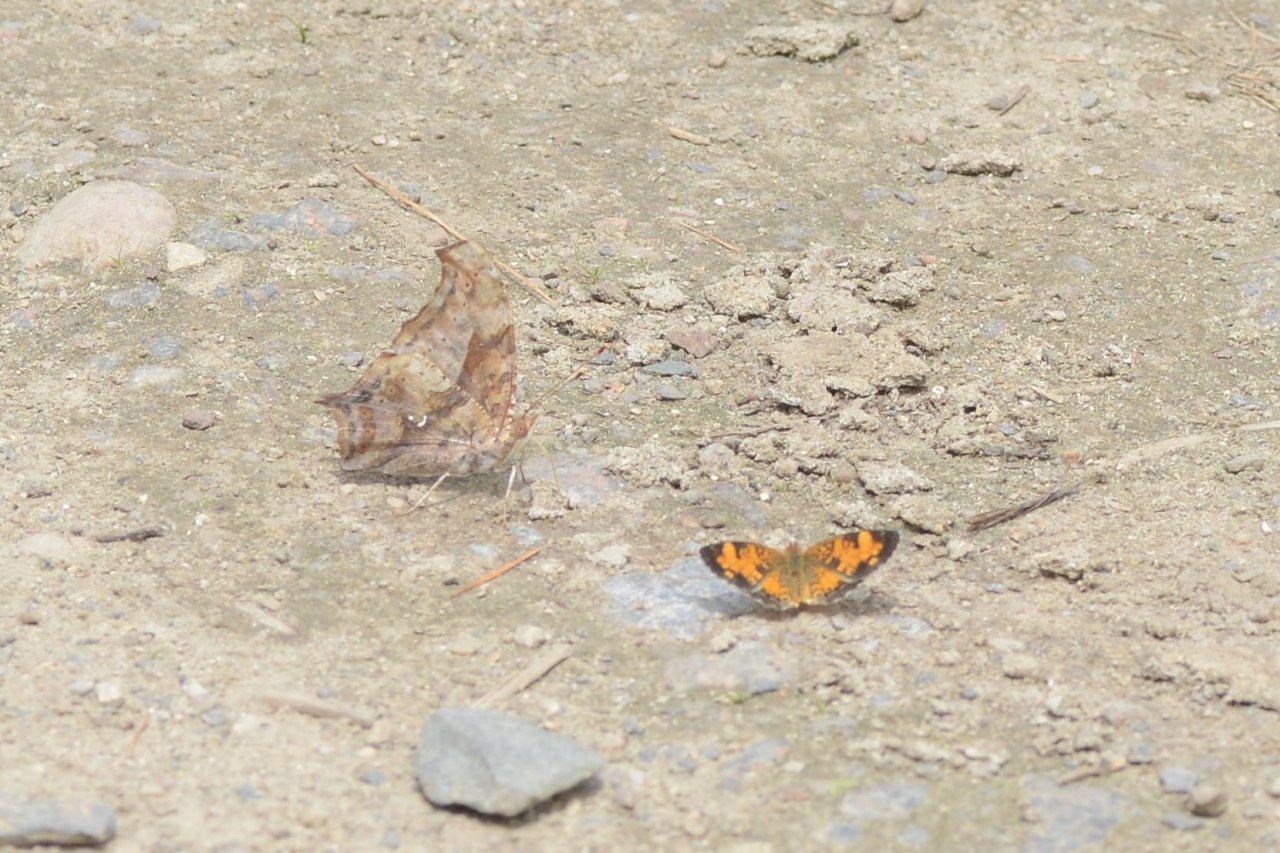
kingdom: Animalia
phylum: Arthropoda
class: Insecta
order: Lepidoptera
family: Nymphalidae
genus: Polygonia
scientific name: Polygonia interrogationis
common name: Question Mark
